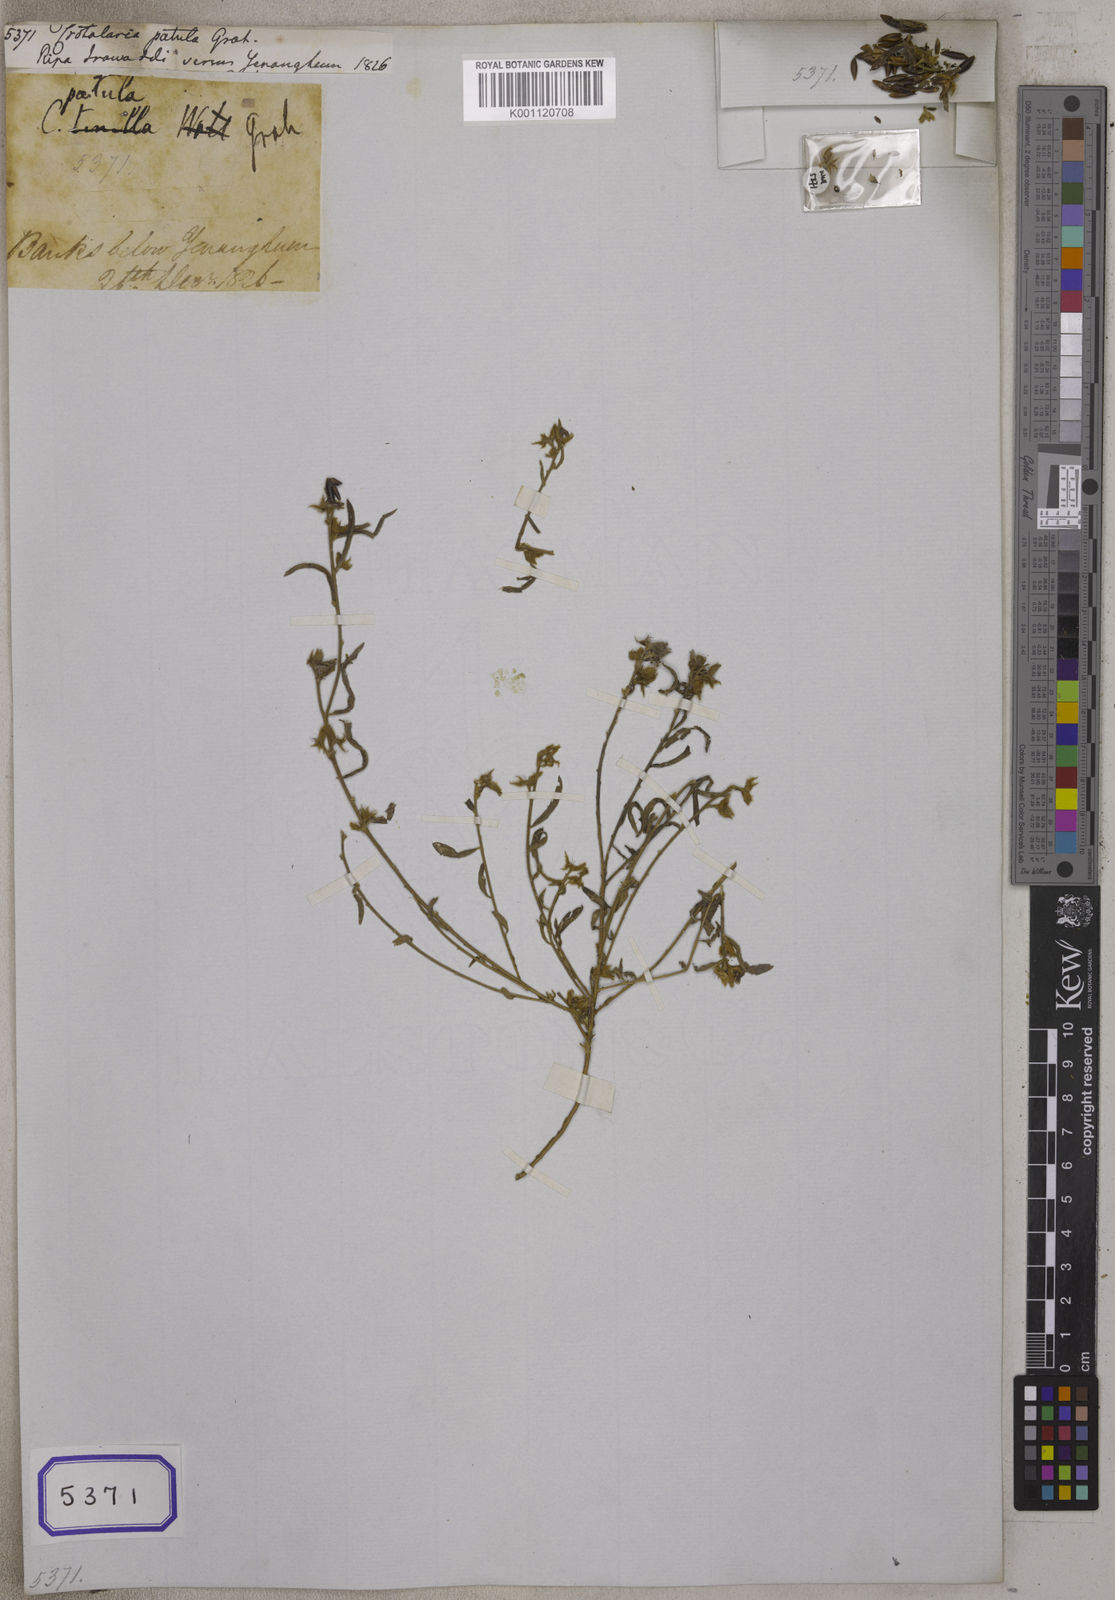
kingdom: Plantae
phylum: Tracheophyta
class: Magnoliopsida
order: Fabales
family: Fabaceae
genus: Crotalaria
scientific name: Crotalaria
